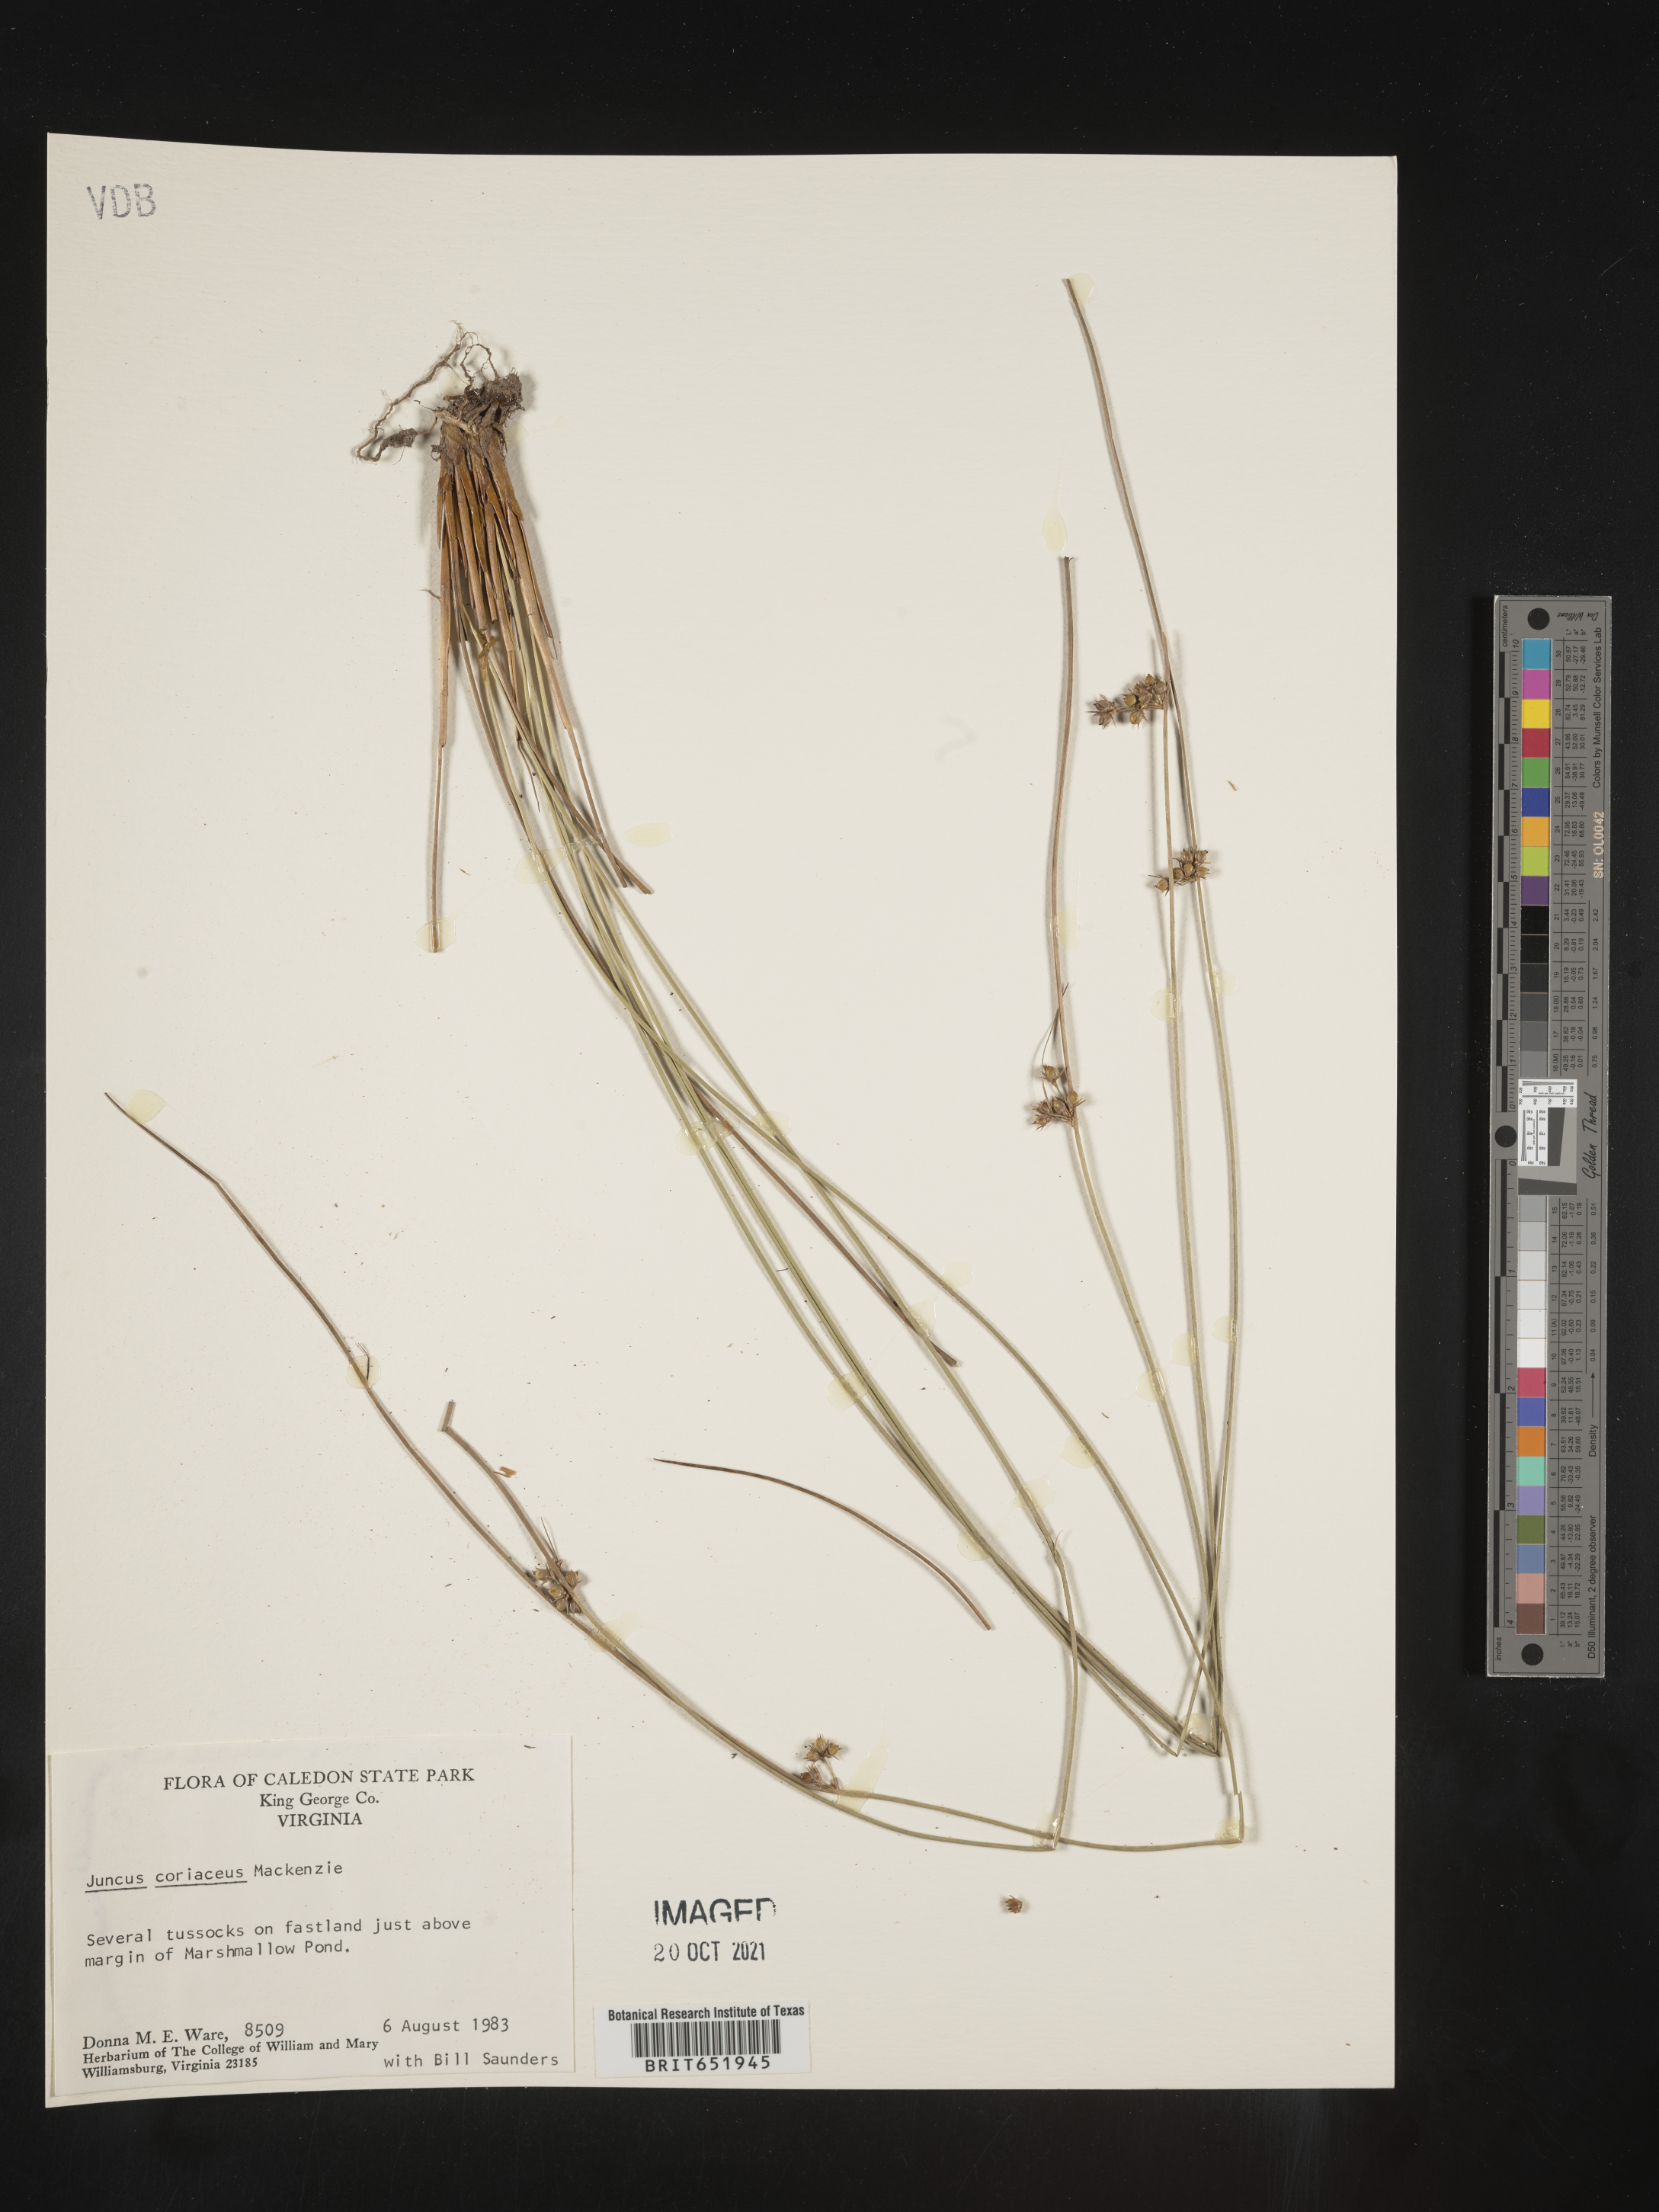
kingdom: Plantae
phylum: Tracheophyta
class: Liliopsida
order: Poales
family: Juncaceae
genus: Juncus
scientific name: Juncus coriaceus
